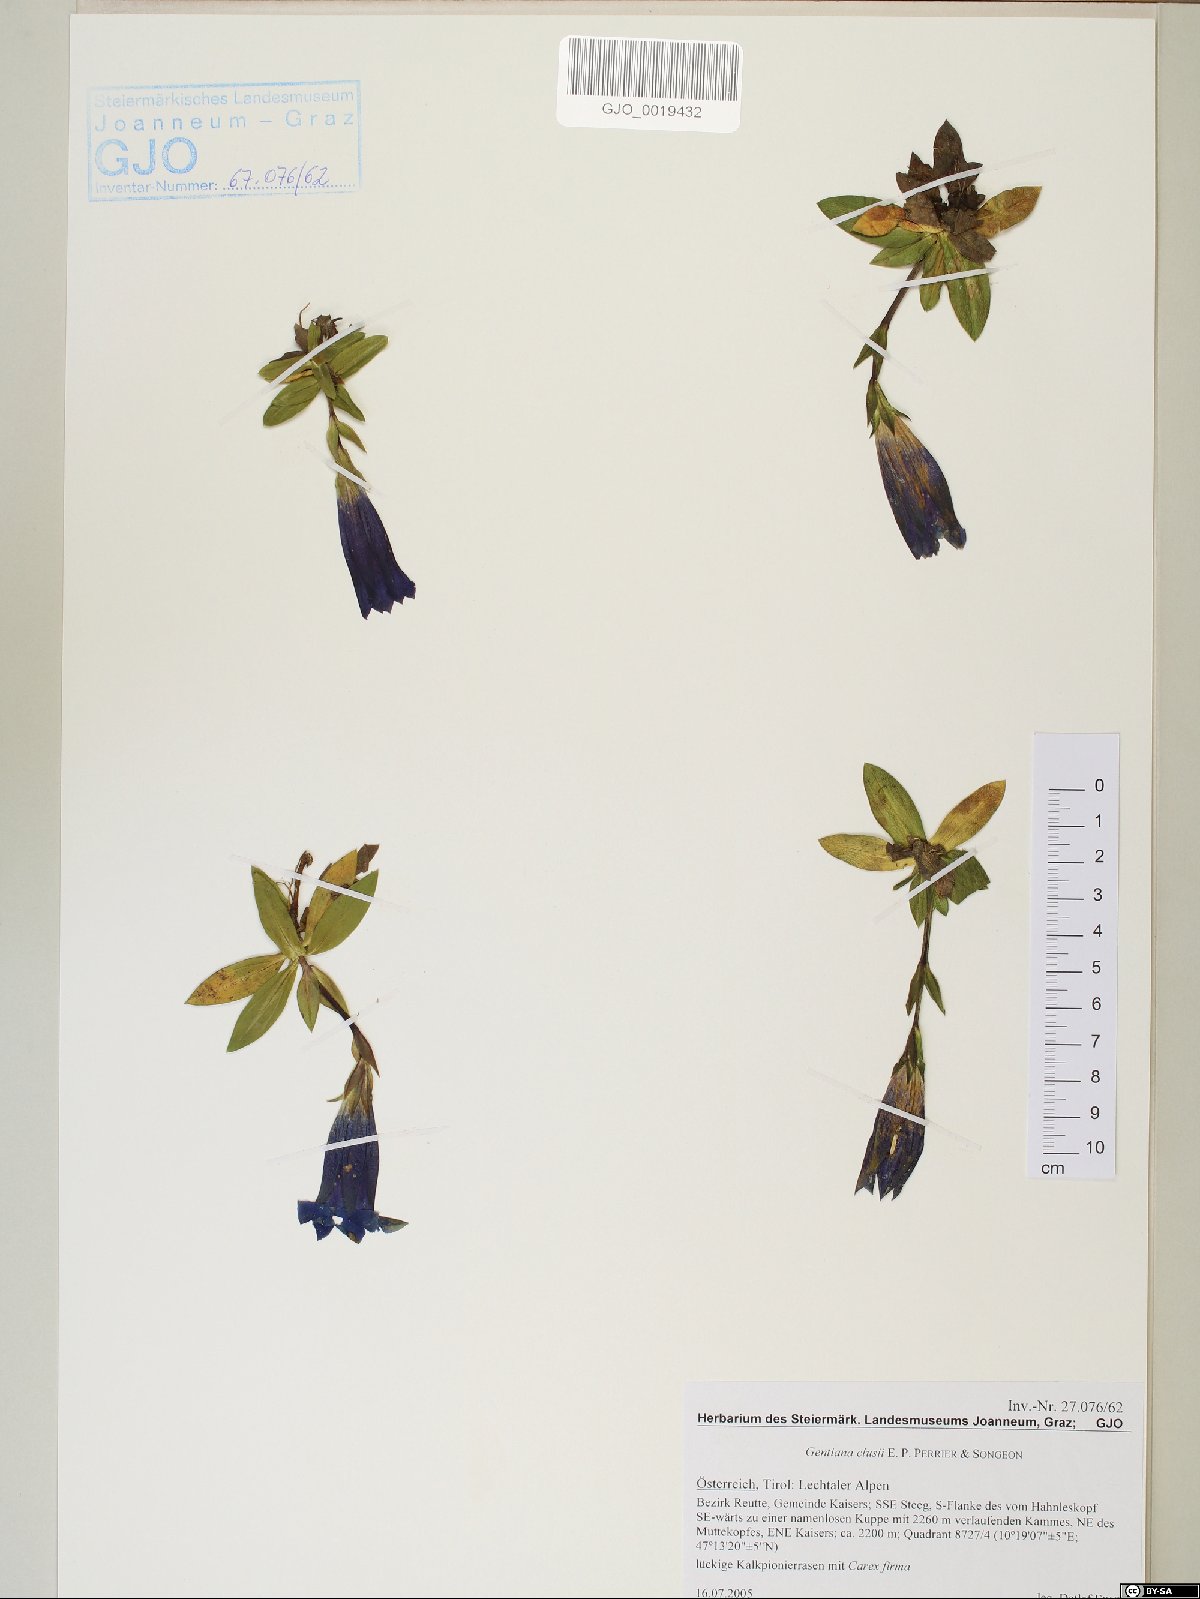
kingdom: Plantae
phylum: Tracheophyta
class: Magnoliopsida
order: Gentianales
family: Gentianaceae
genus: Gentiana
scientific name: Gentiana clusii
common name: Trumpet gentian
